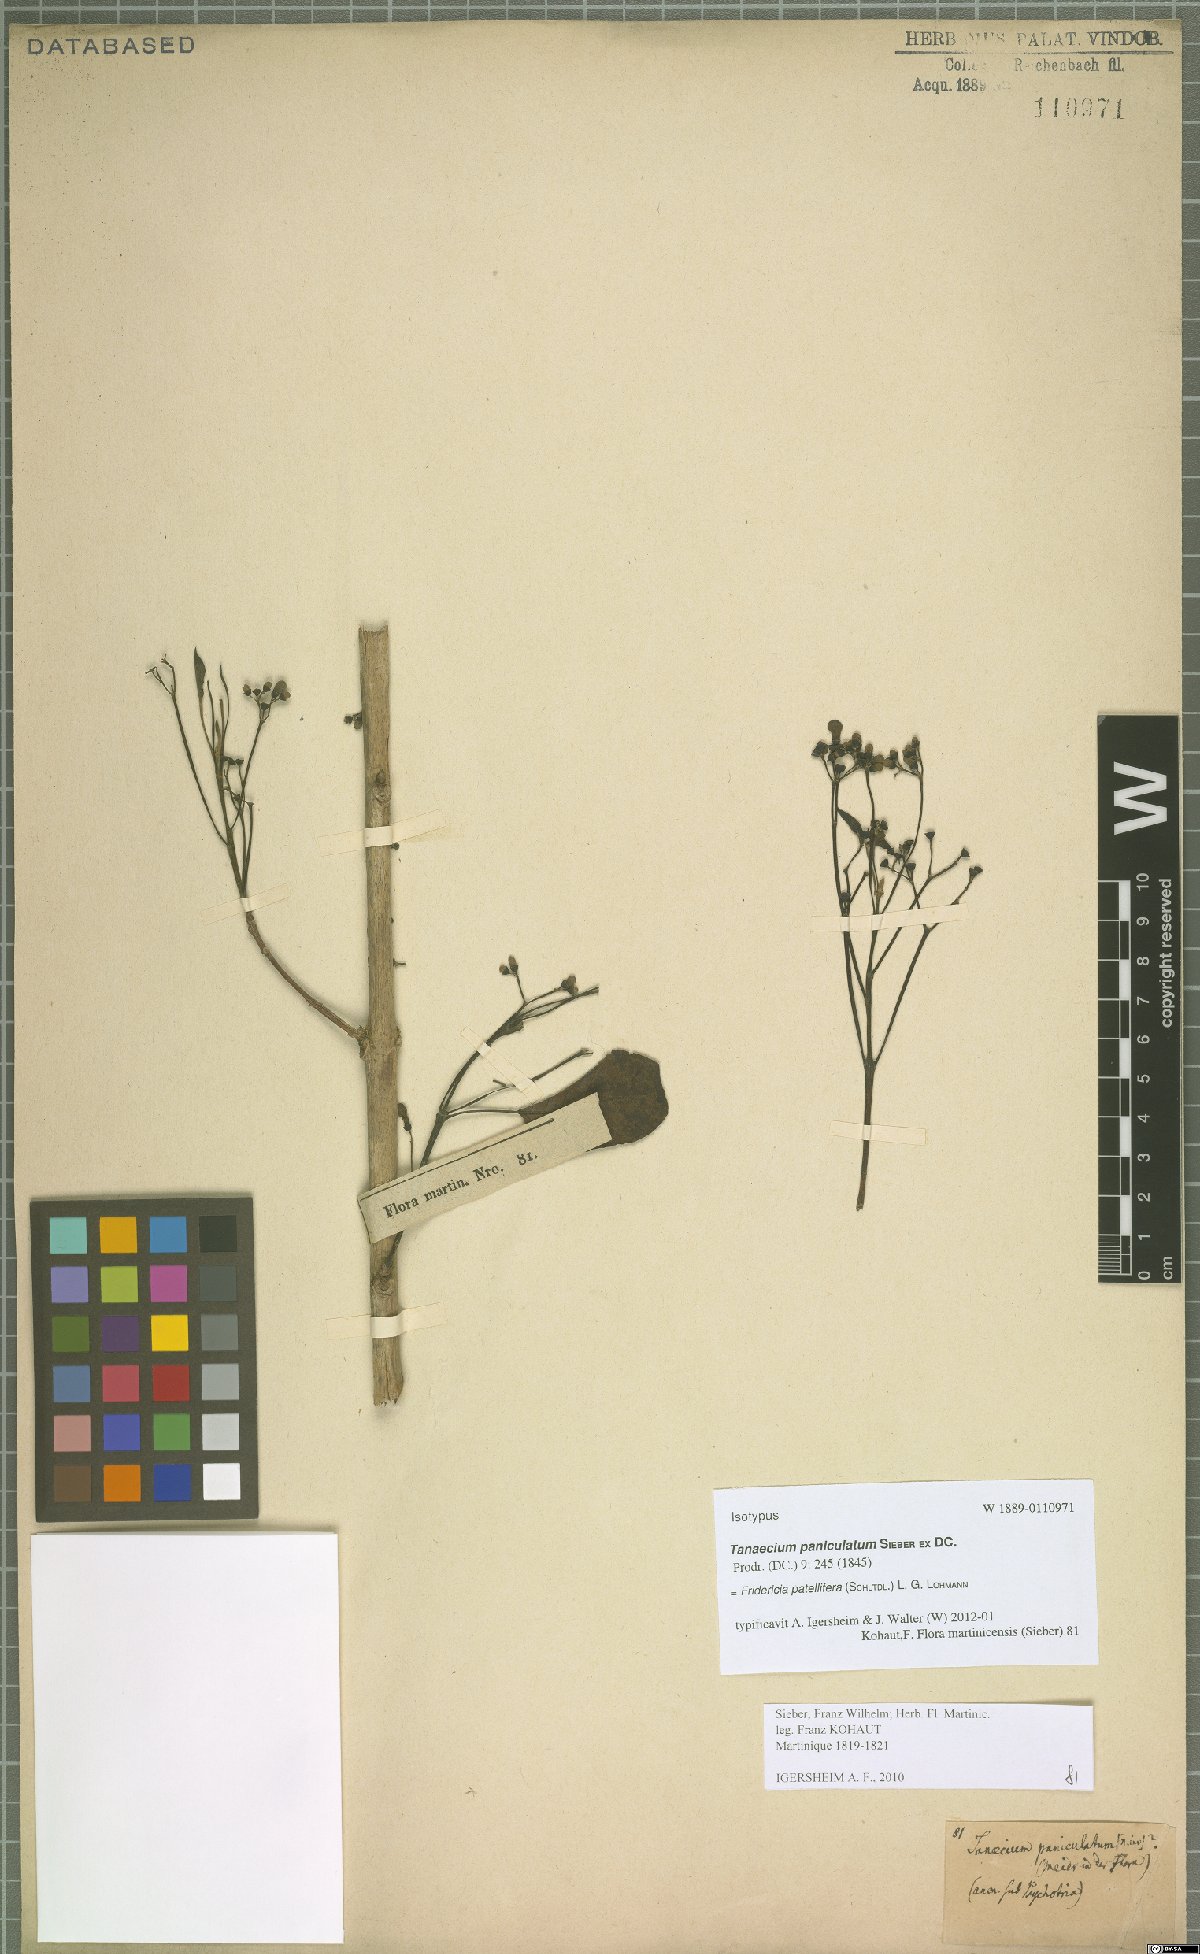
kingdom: Plantae
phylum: Tracheophyta
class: Magnoliopsida
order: Lamiales
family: Bignoniaceae
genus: Fridericia
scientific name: Fridericia patellifera
